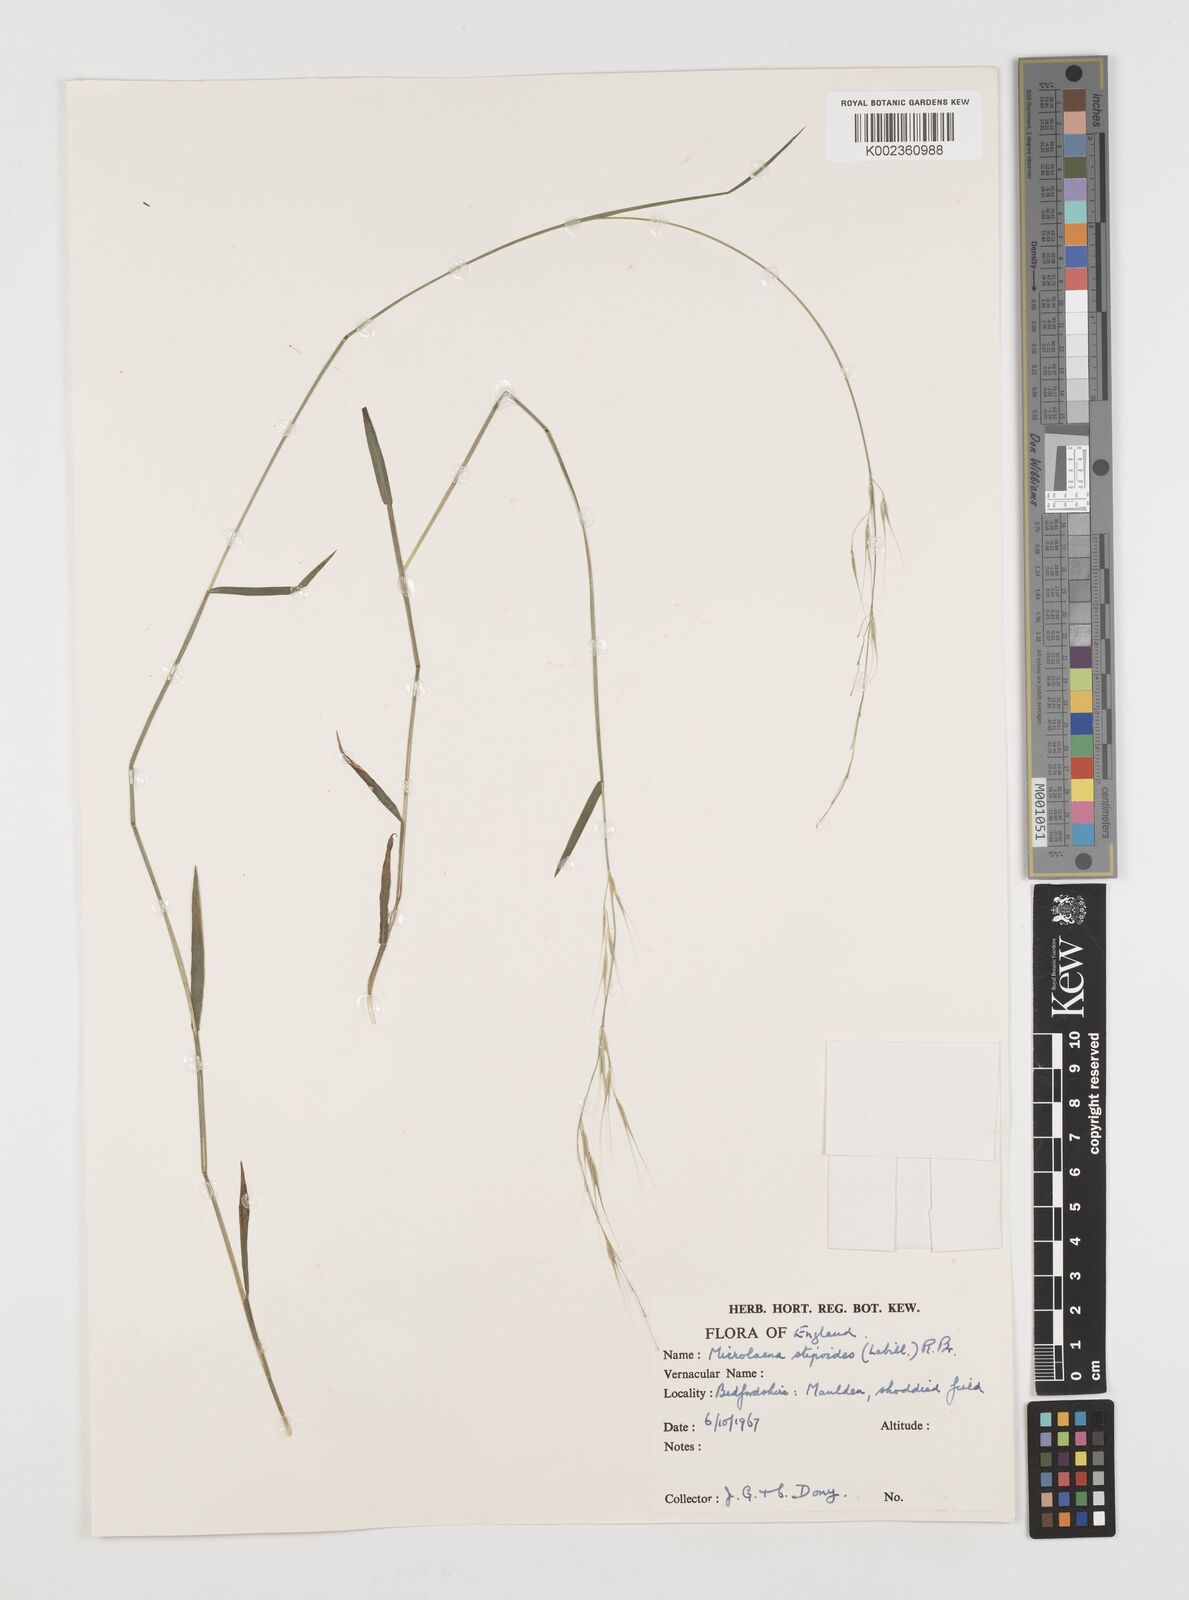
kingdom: Plantae
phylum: Tracheophyta
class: Liliopsida
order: Poales
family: Poaceae
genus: Microlaena
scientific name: Microlaena stipoides
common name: Meadow ricegrass
